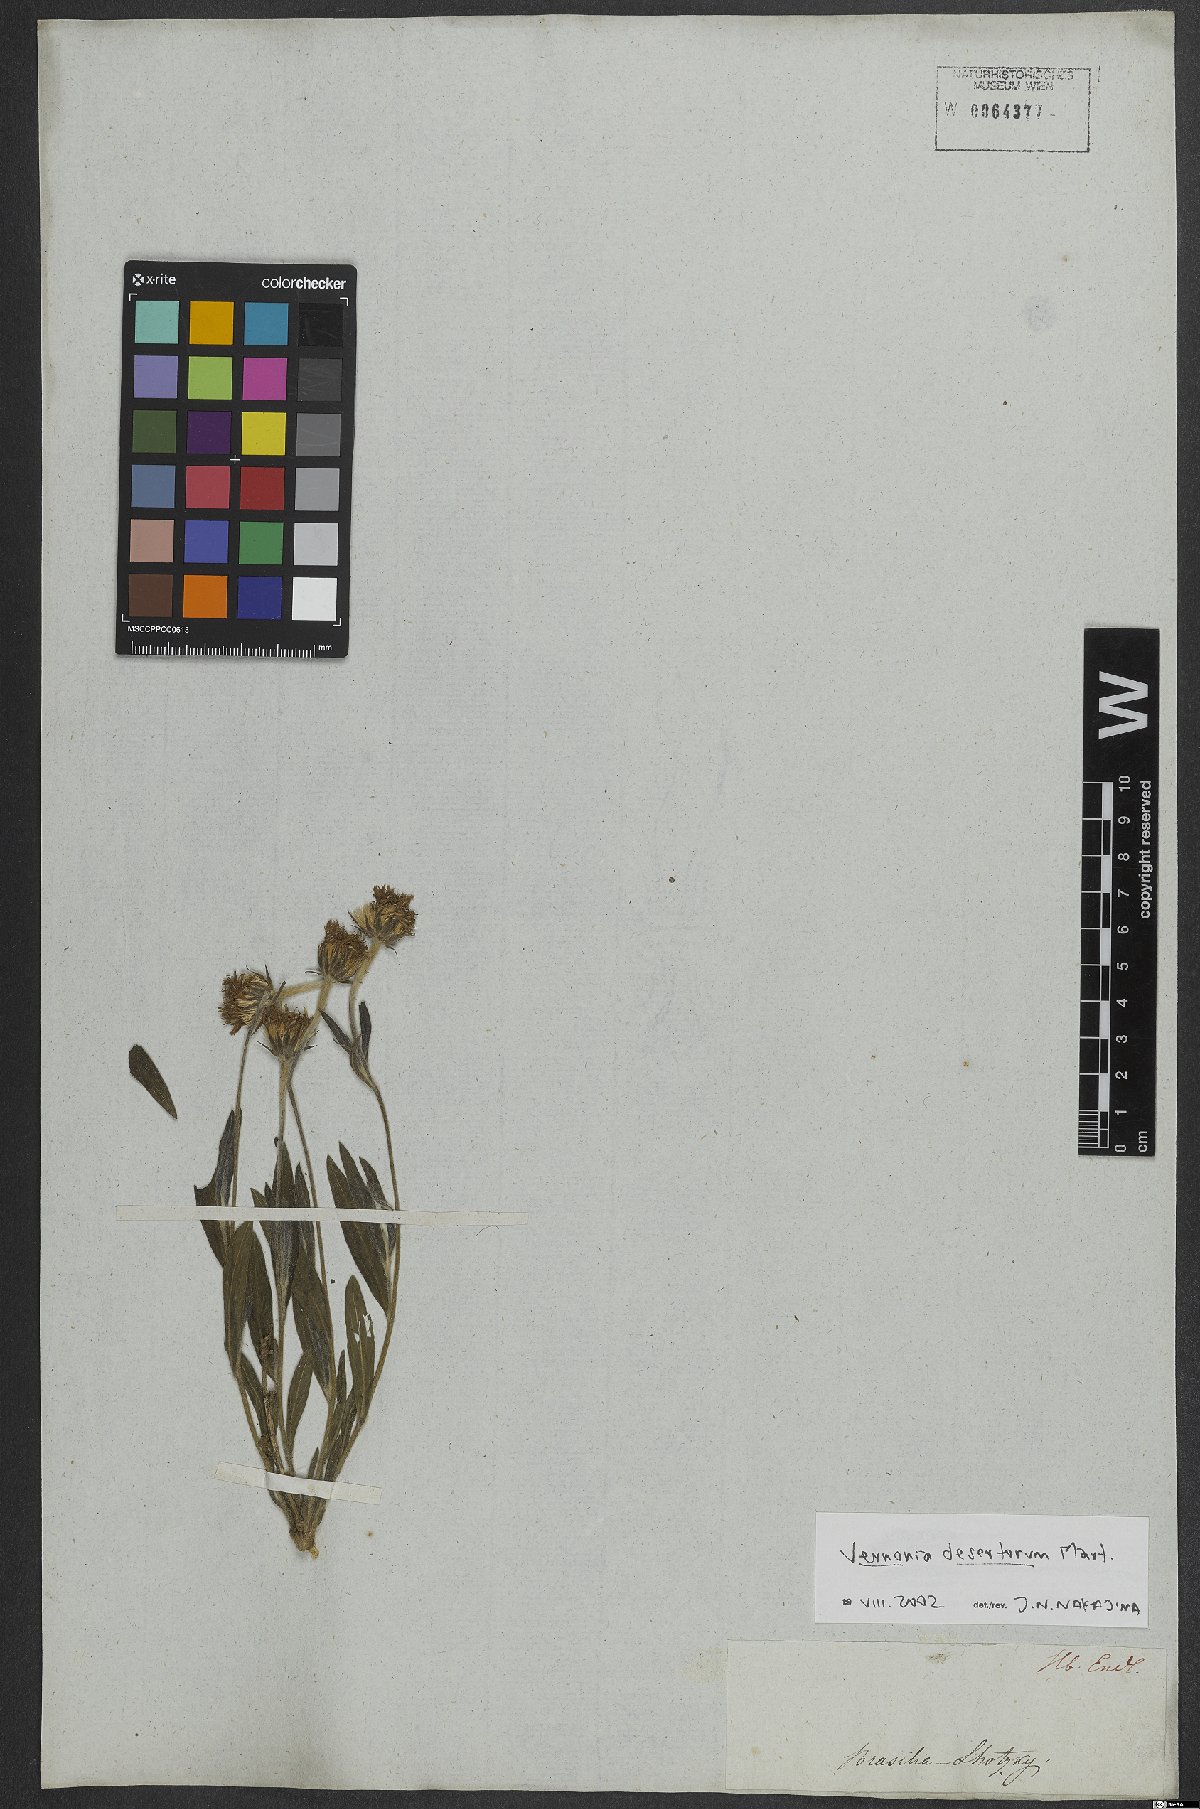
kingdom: Plantae
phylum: Tracheophyta
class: Magnoliopsida
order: Asterales
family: Asteraceae
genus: Chrysolaena
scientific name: Chrysolaena desertorum
